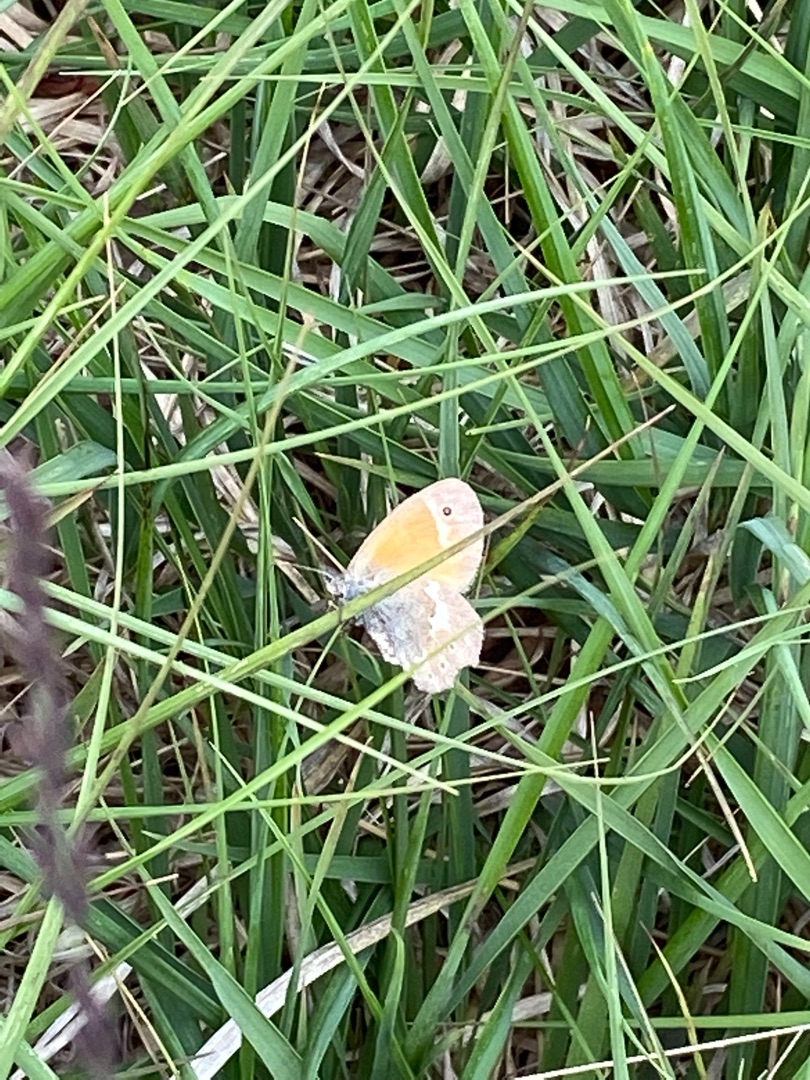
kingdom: Animalia
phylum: Arthropoda
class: Insecta
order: Lepidoptera
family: Nymphalidae
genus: Coenonympha
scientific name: Coenonympha tullia
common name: Moserandøje
